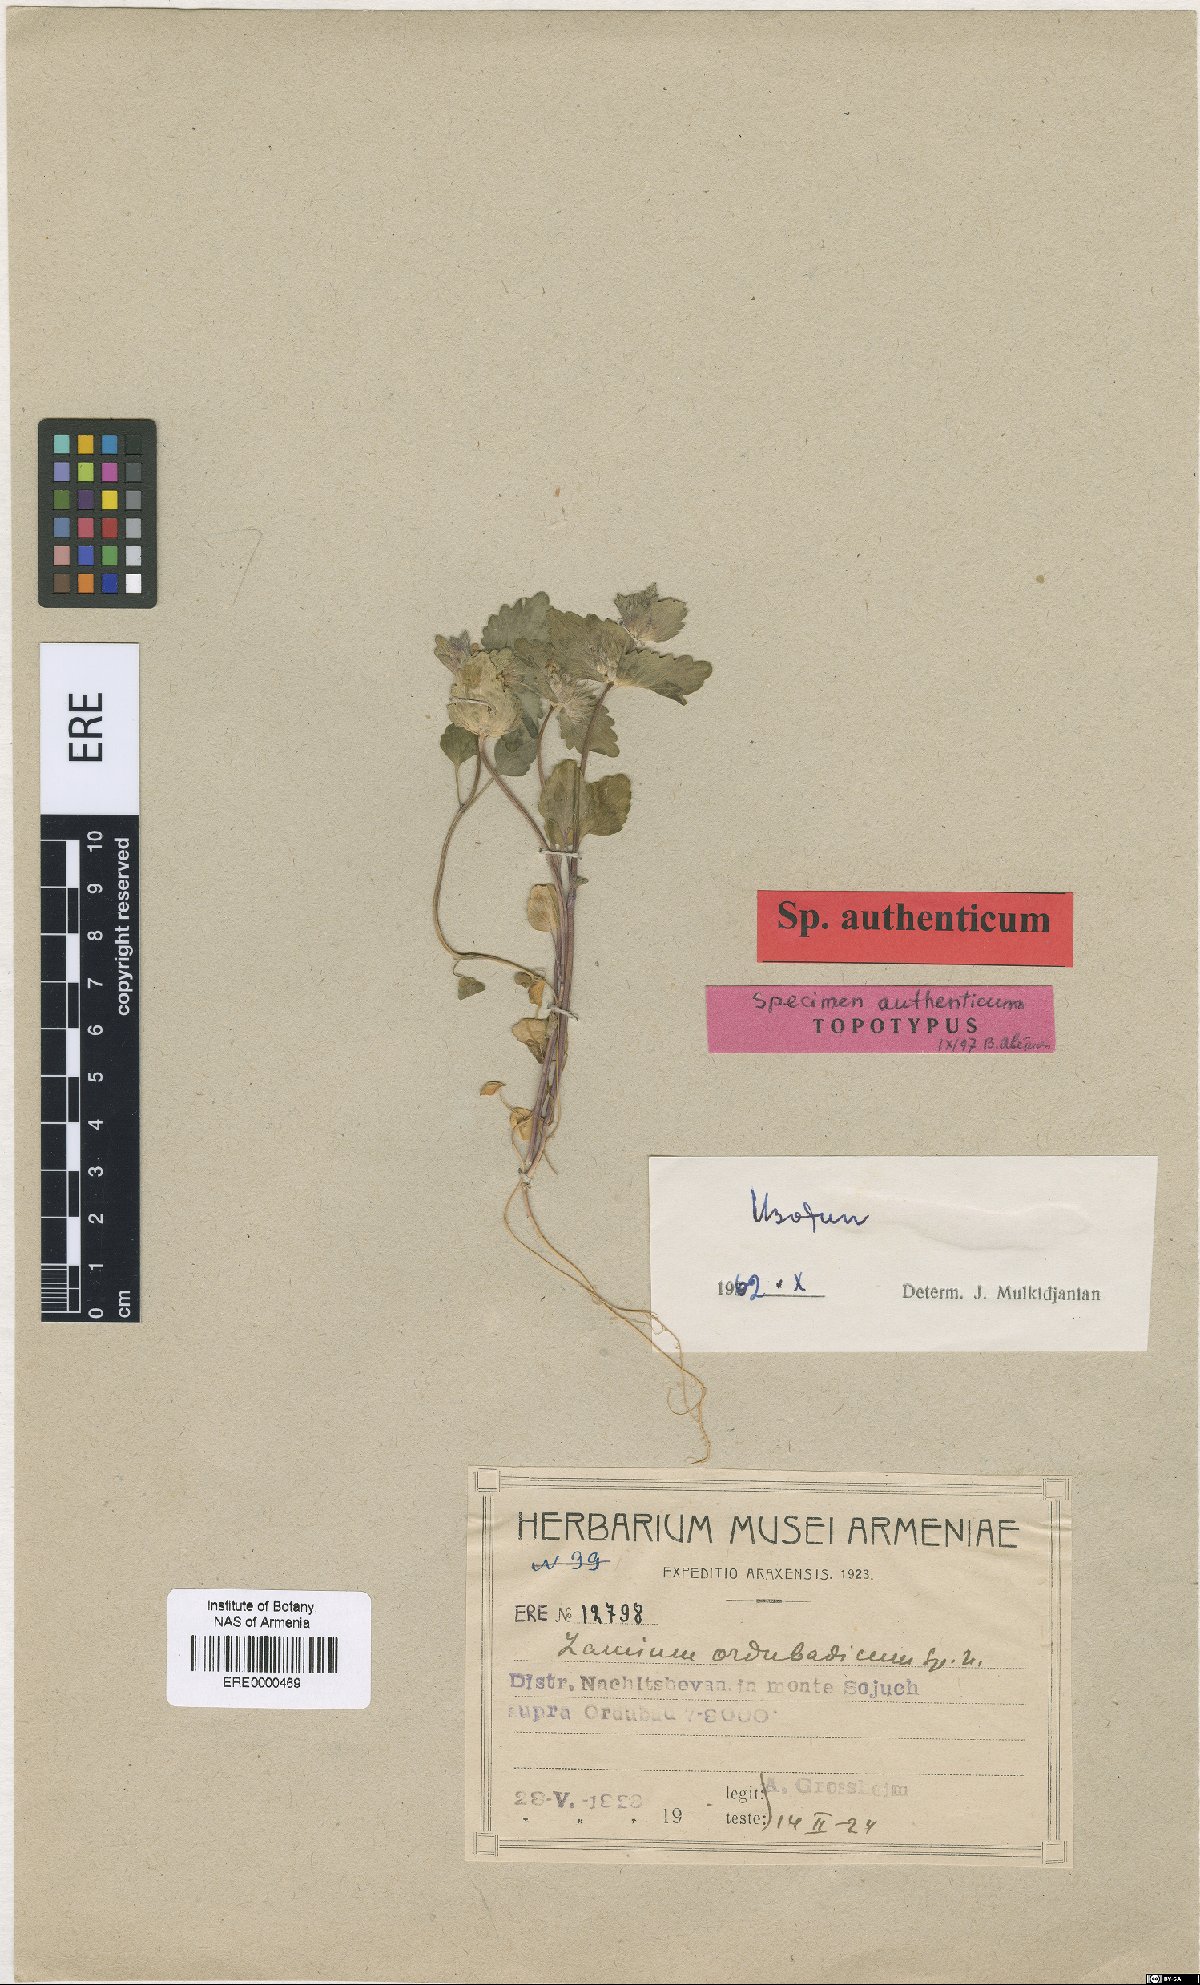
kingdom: Plantae
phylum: Tracheophyta
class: Magnoliopsida
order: Lamiales
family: Lamiaceae
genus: Lamium
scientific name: Lamium macrodon
